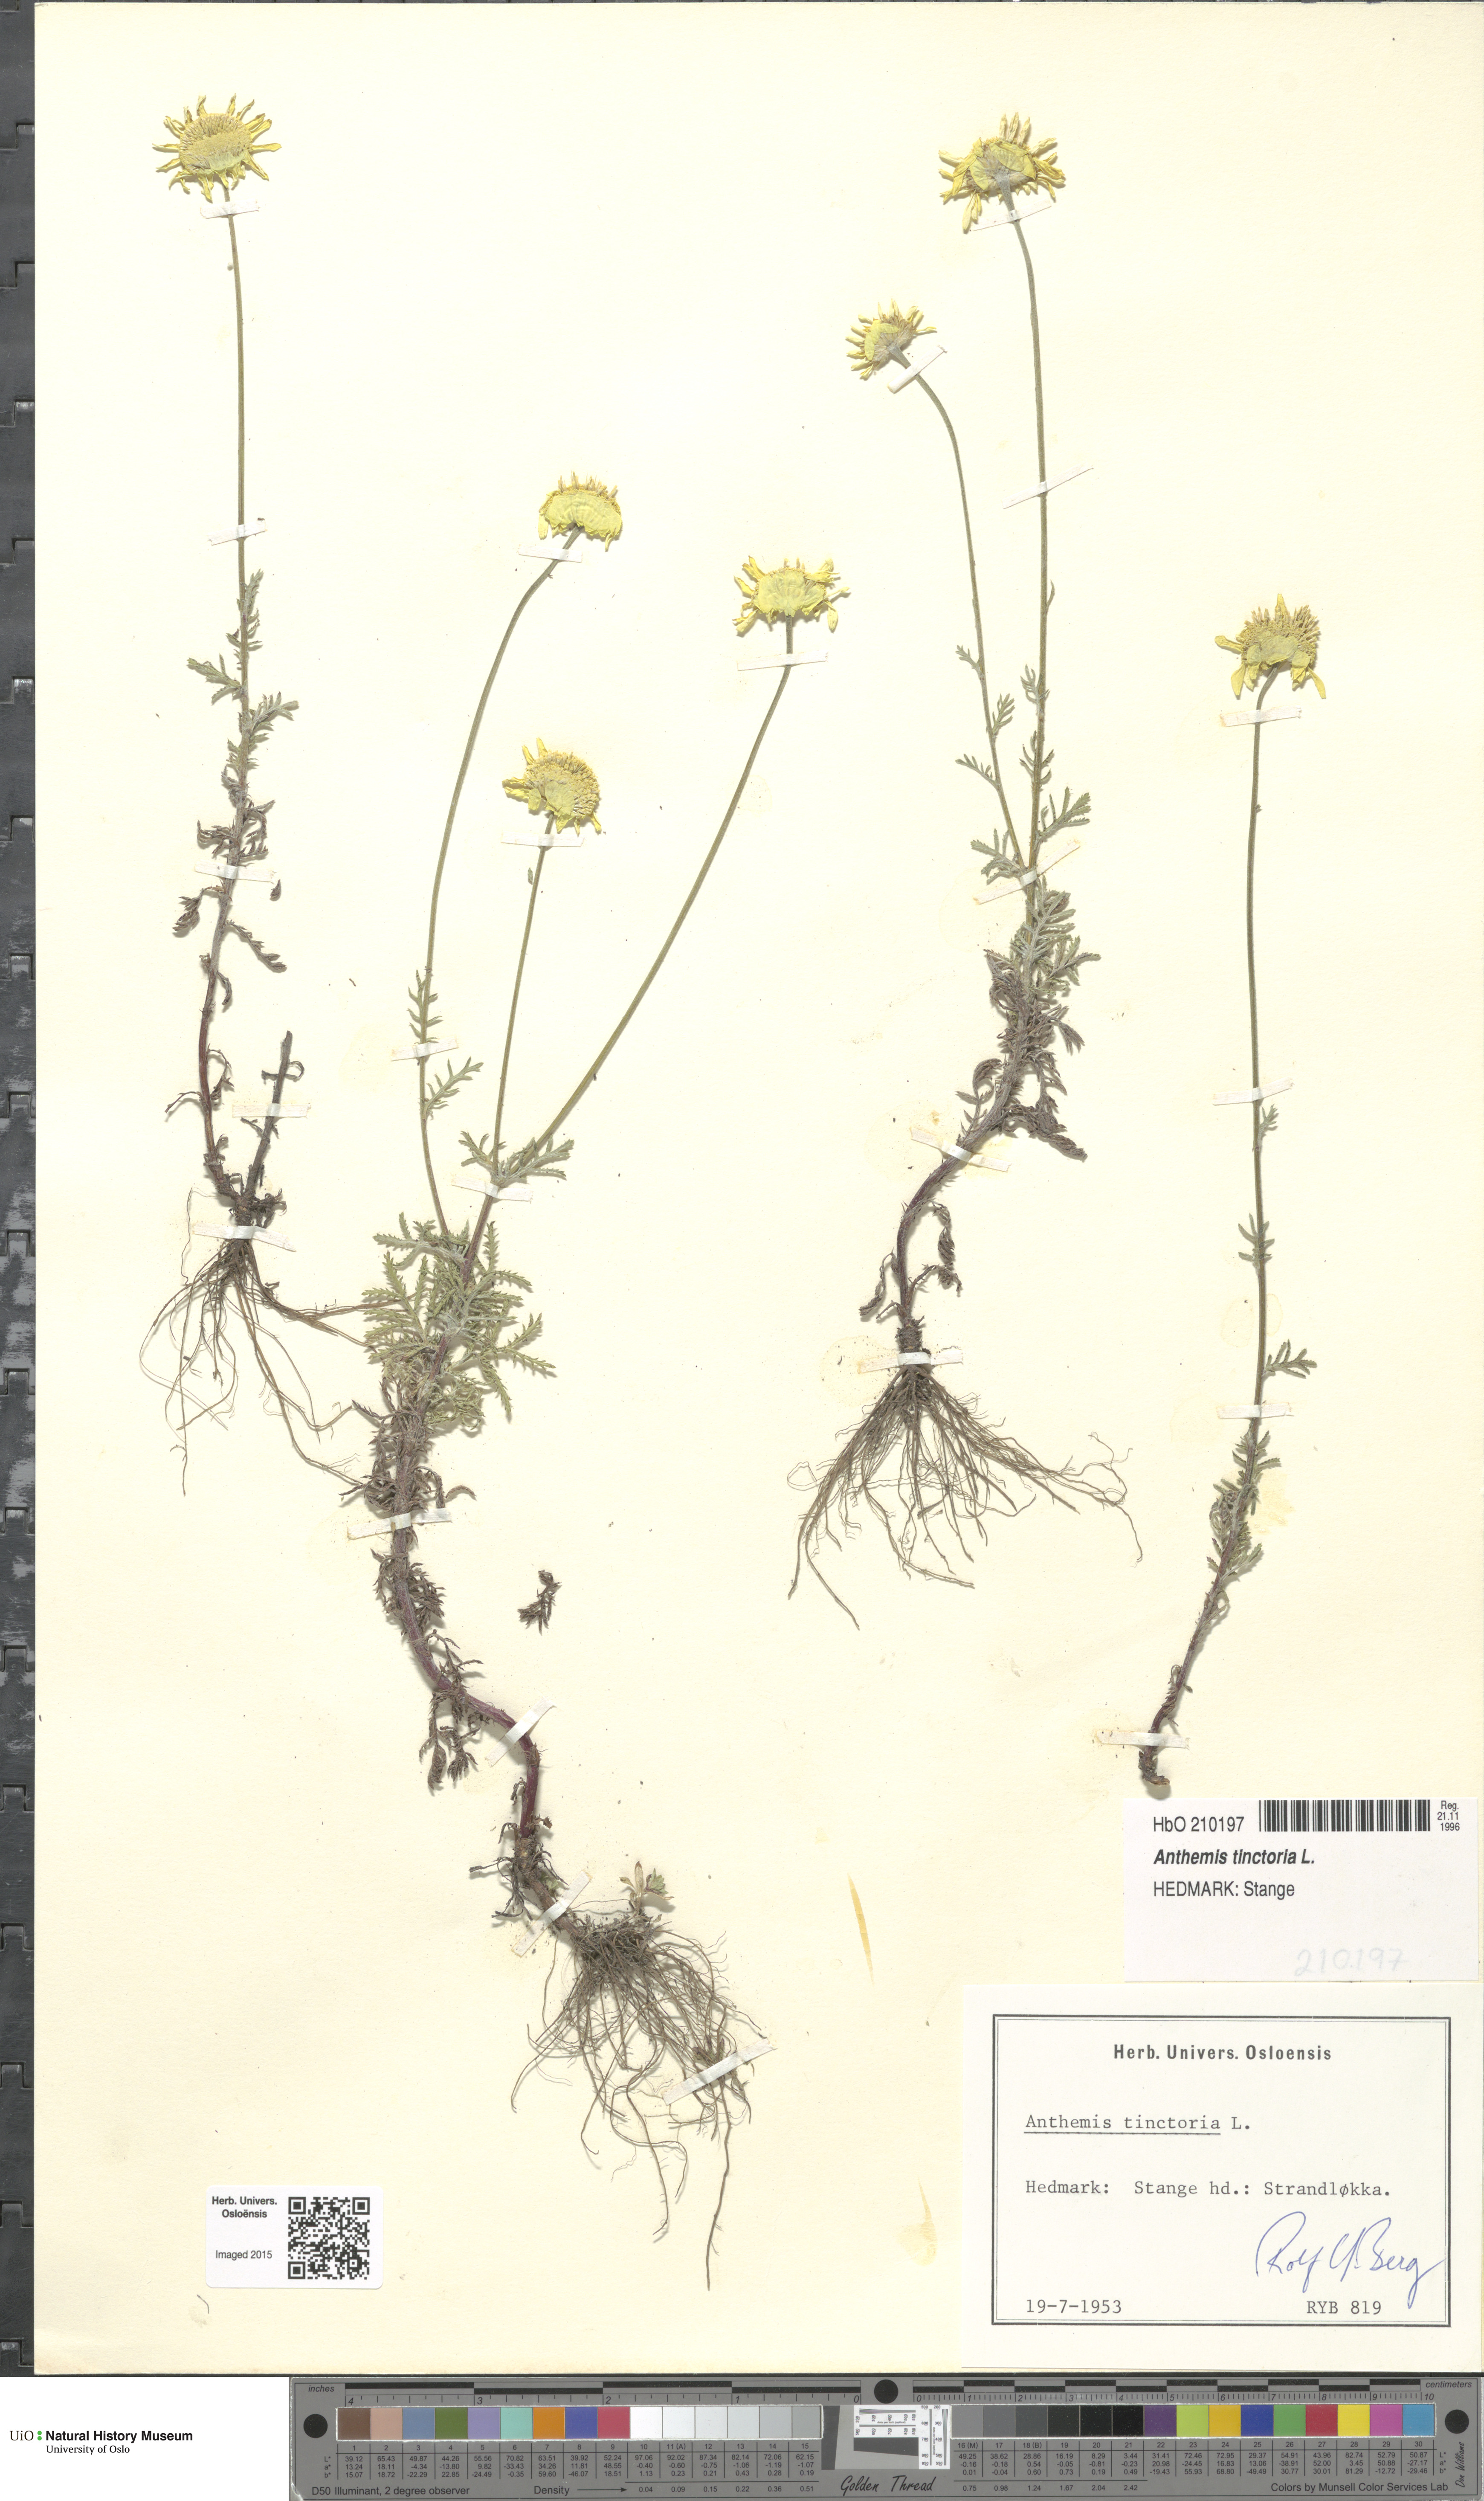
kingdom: Plantae
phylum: Tracheophyta
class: Magnoliopsida
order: Asterales
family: Asteraceae
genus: Cota
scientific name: Cota tinctoria
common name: Golden chamomile
